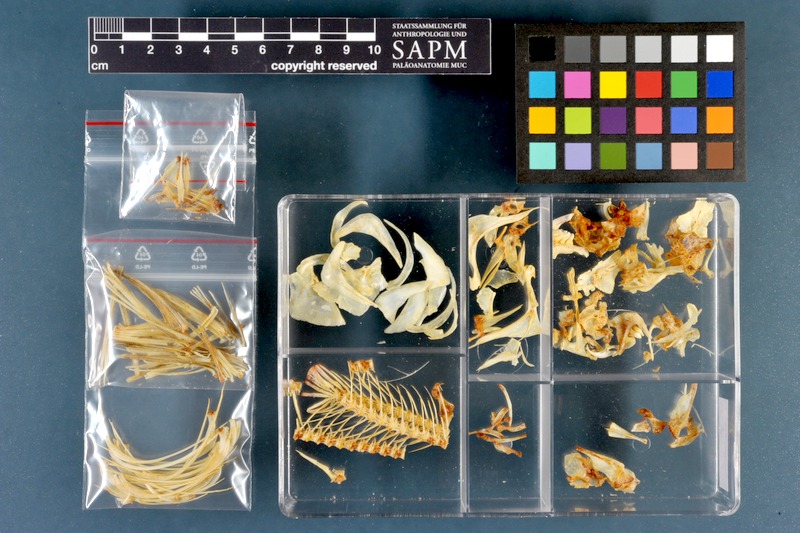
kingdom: Animalia
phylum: Chordata
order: Cypriniformes
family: Cyprinidae
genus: Rutilus
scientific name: Rutilus rutilus
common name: Roach
